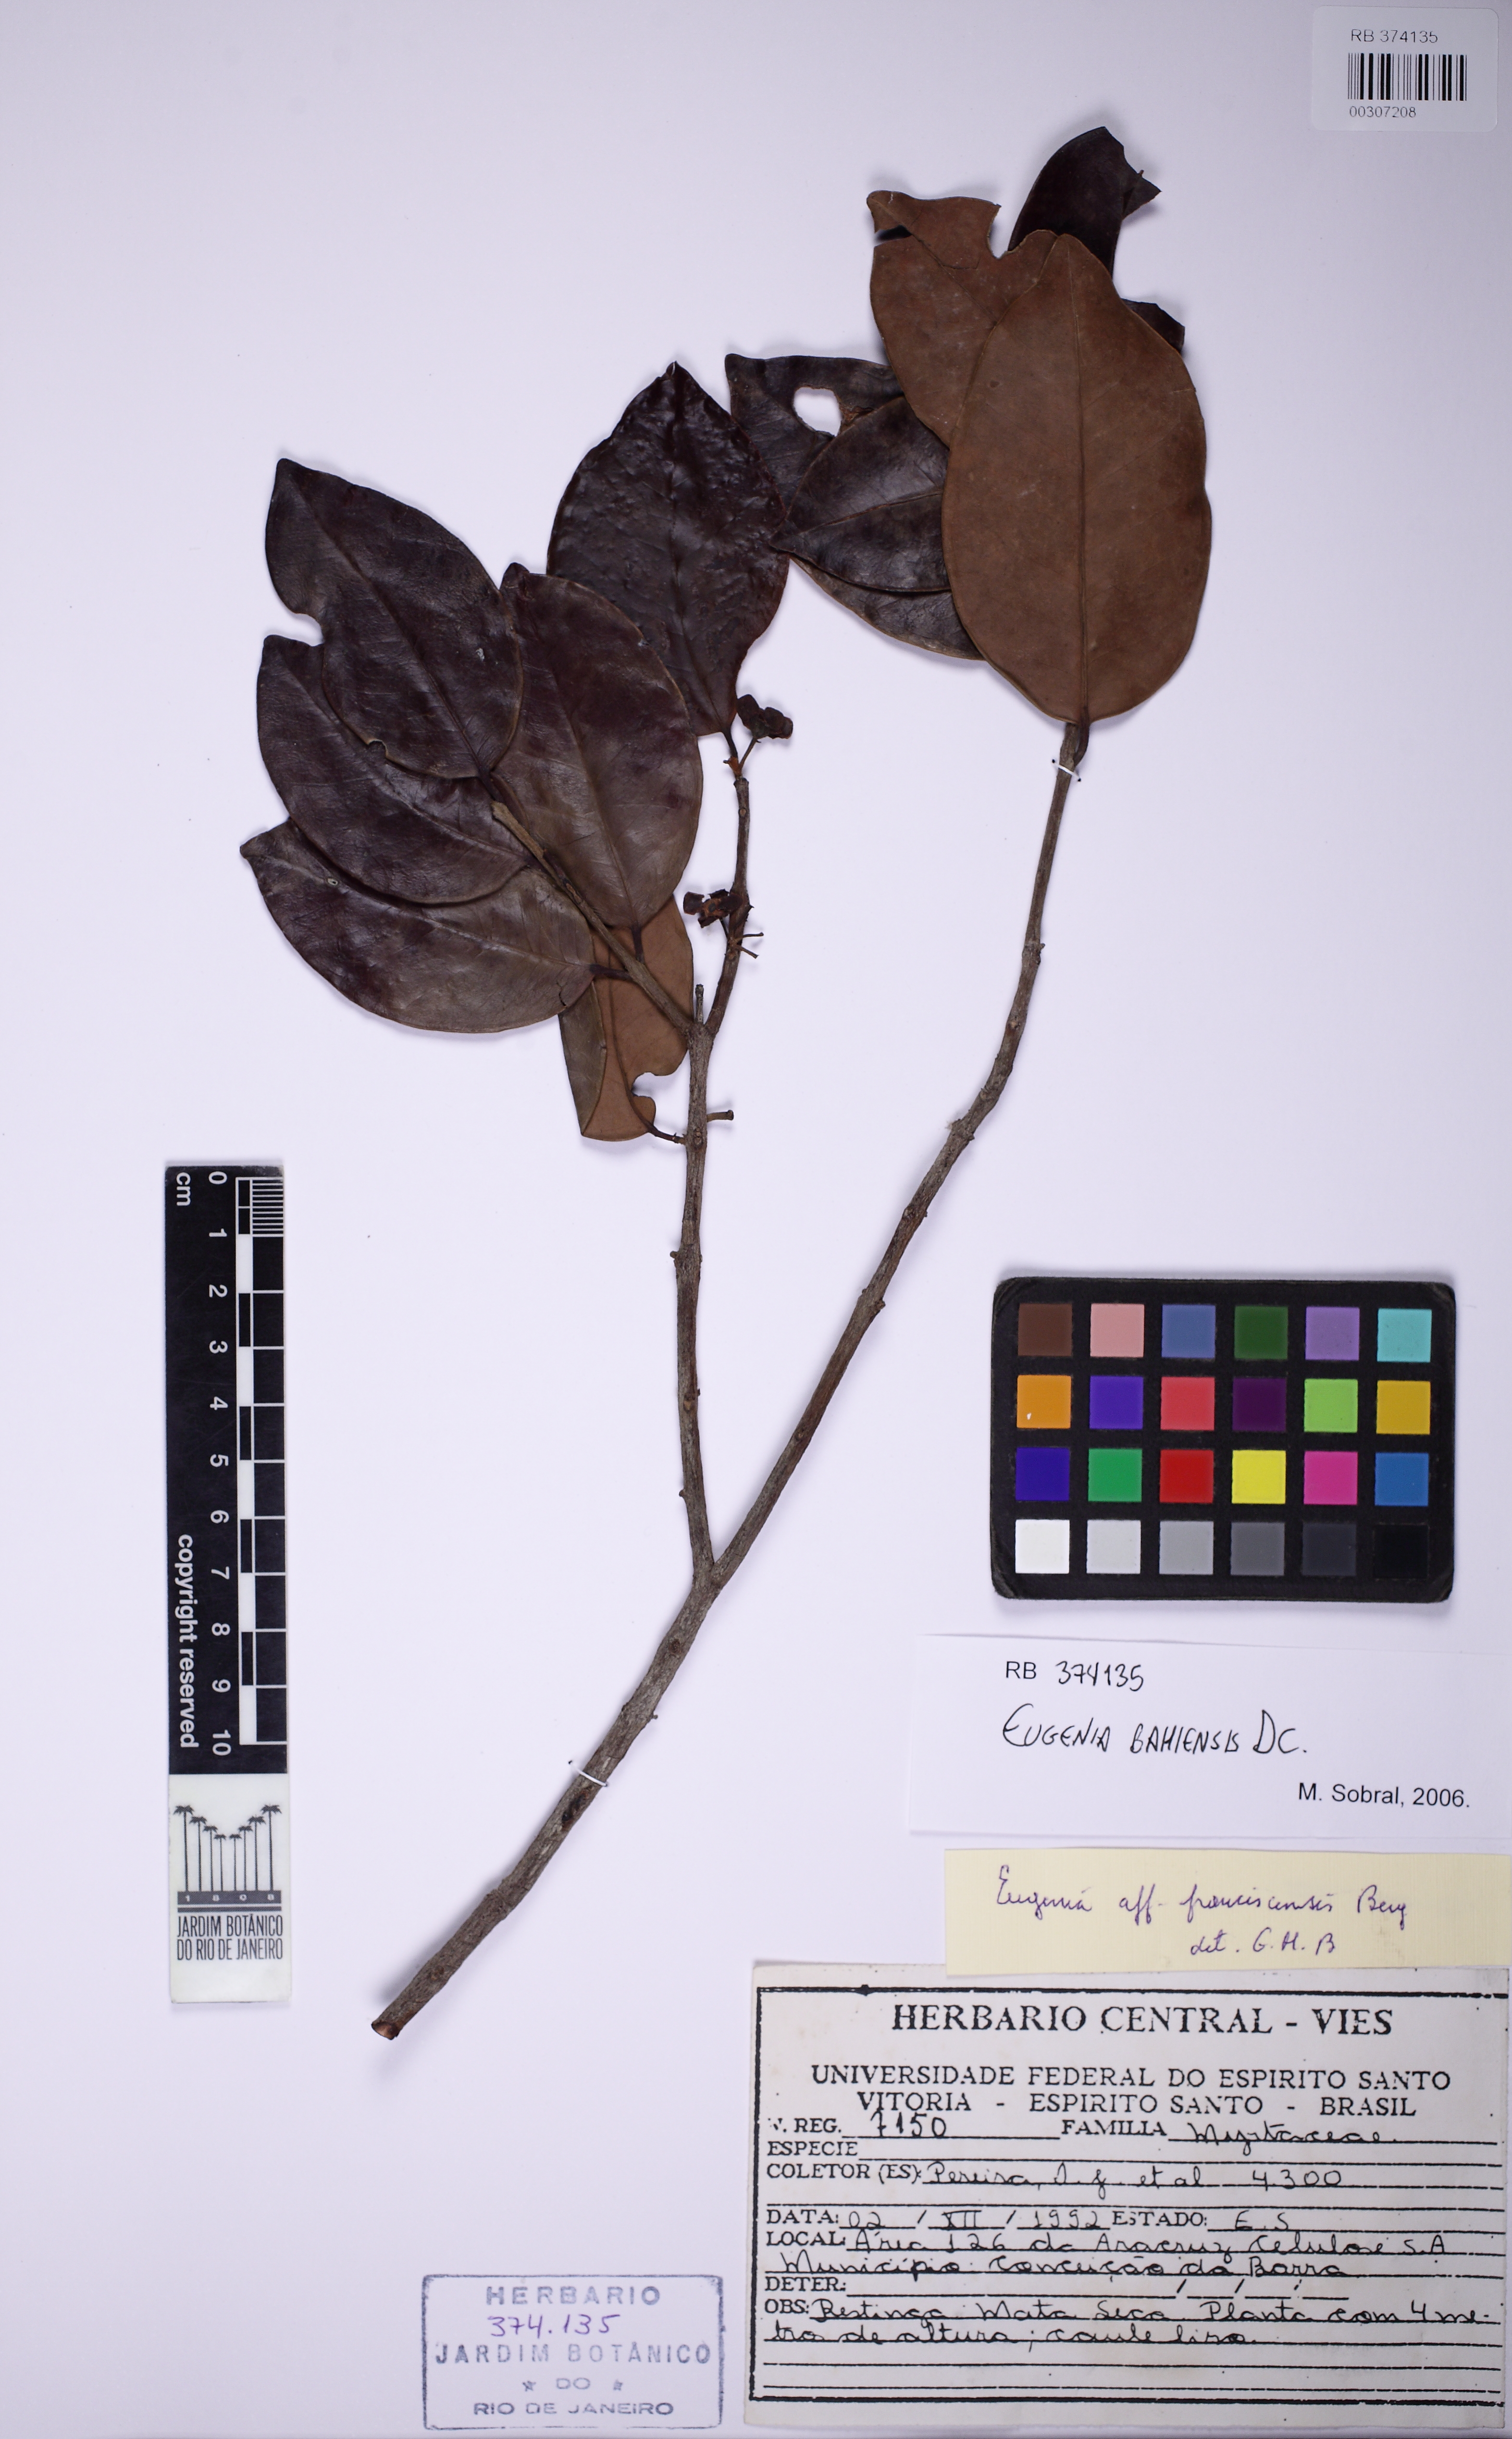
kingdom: Plantae
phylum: Tracheophyta
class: Magnoliopsida
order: Myrtales
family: Myrtaceae
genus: Eugenia
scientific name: Eugenia bahiensis
